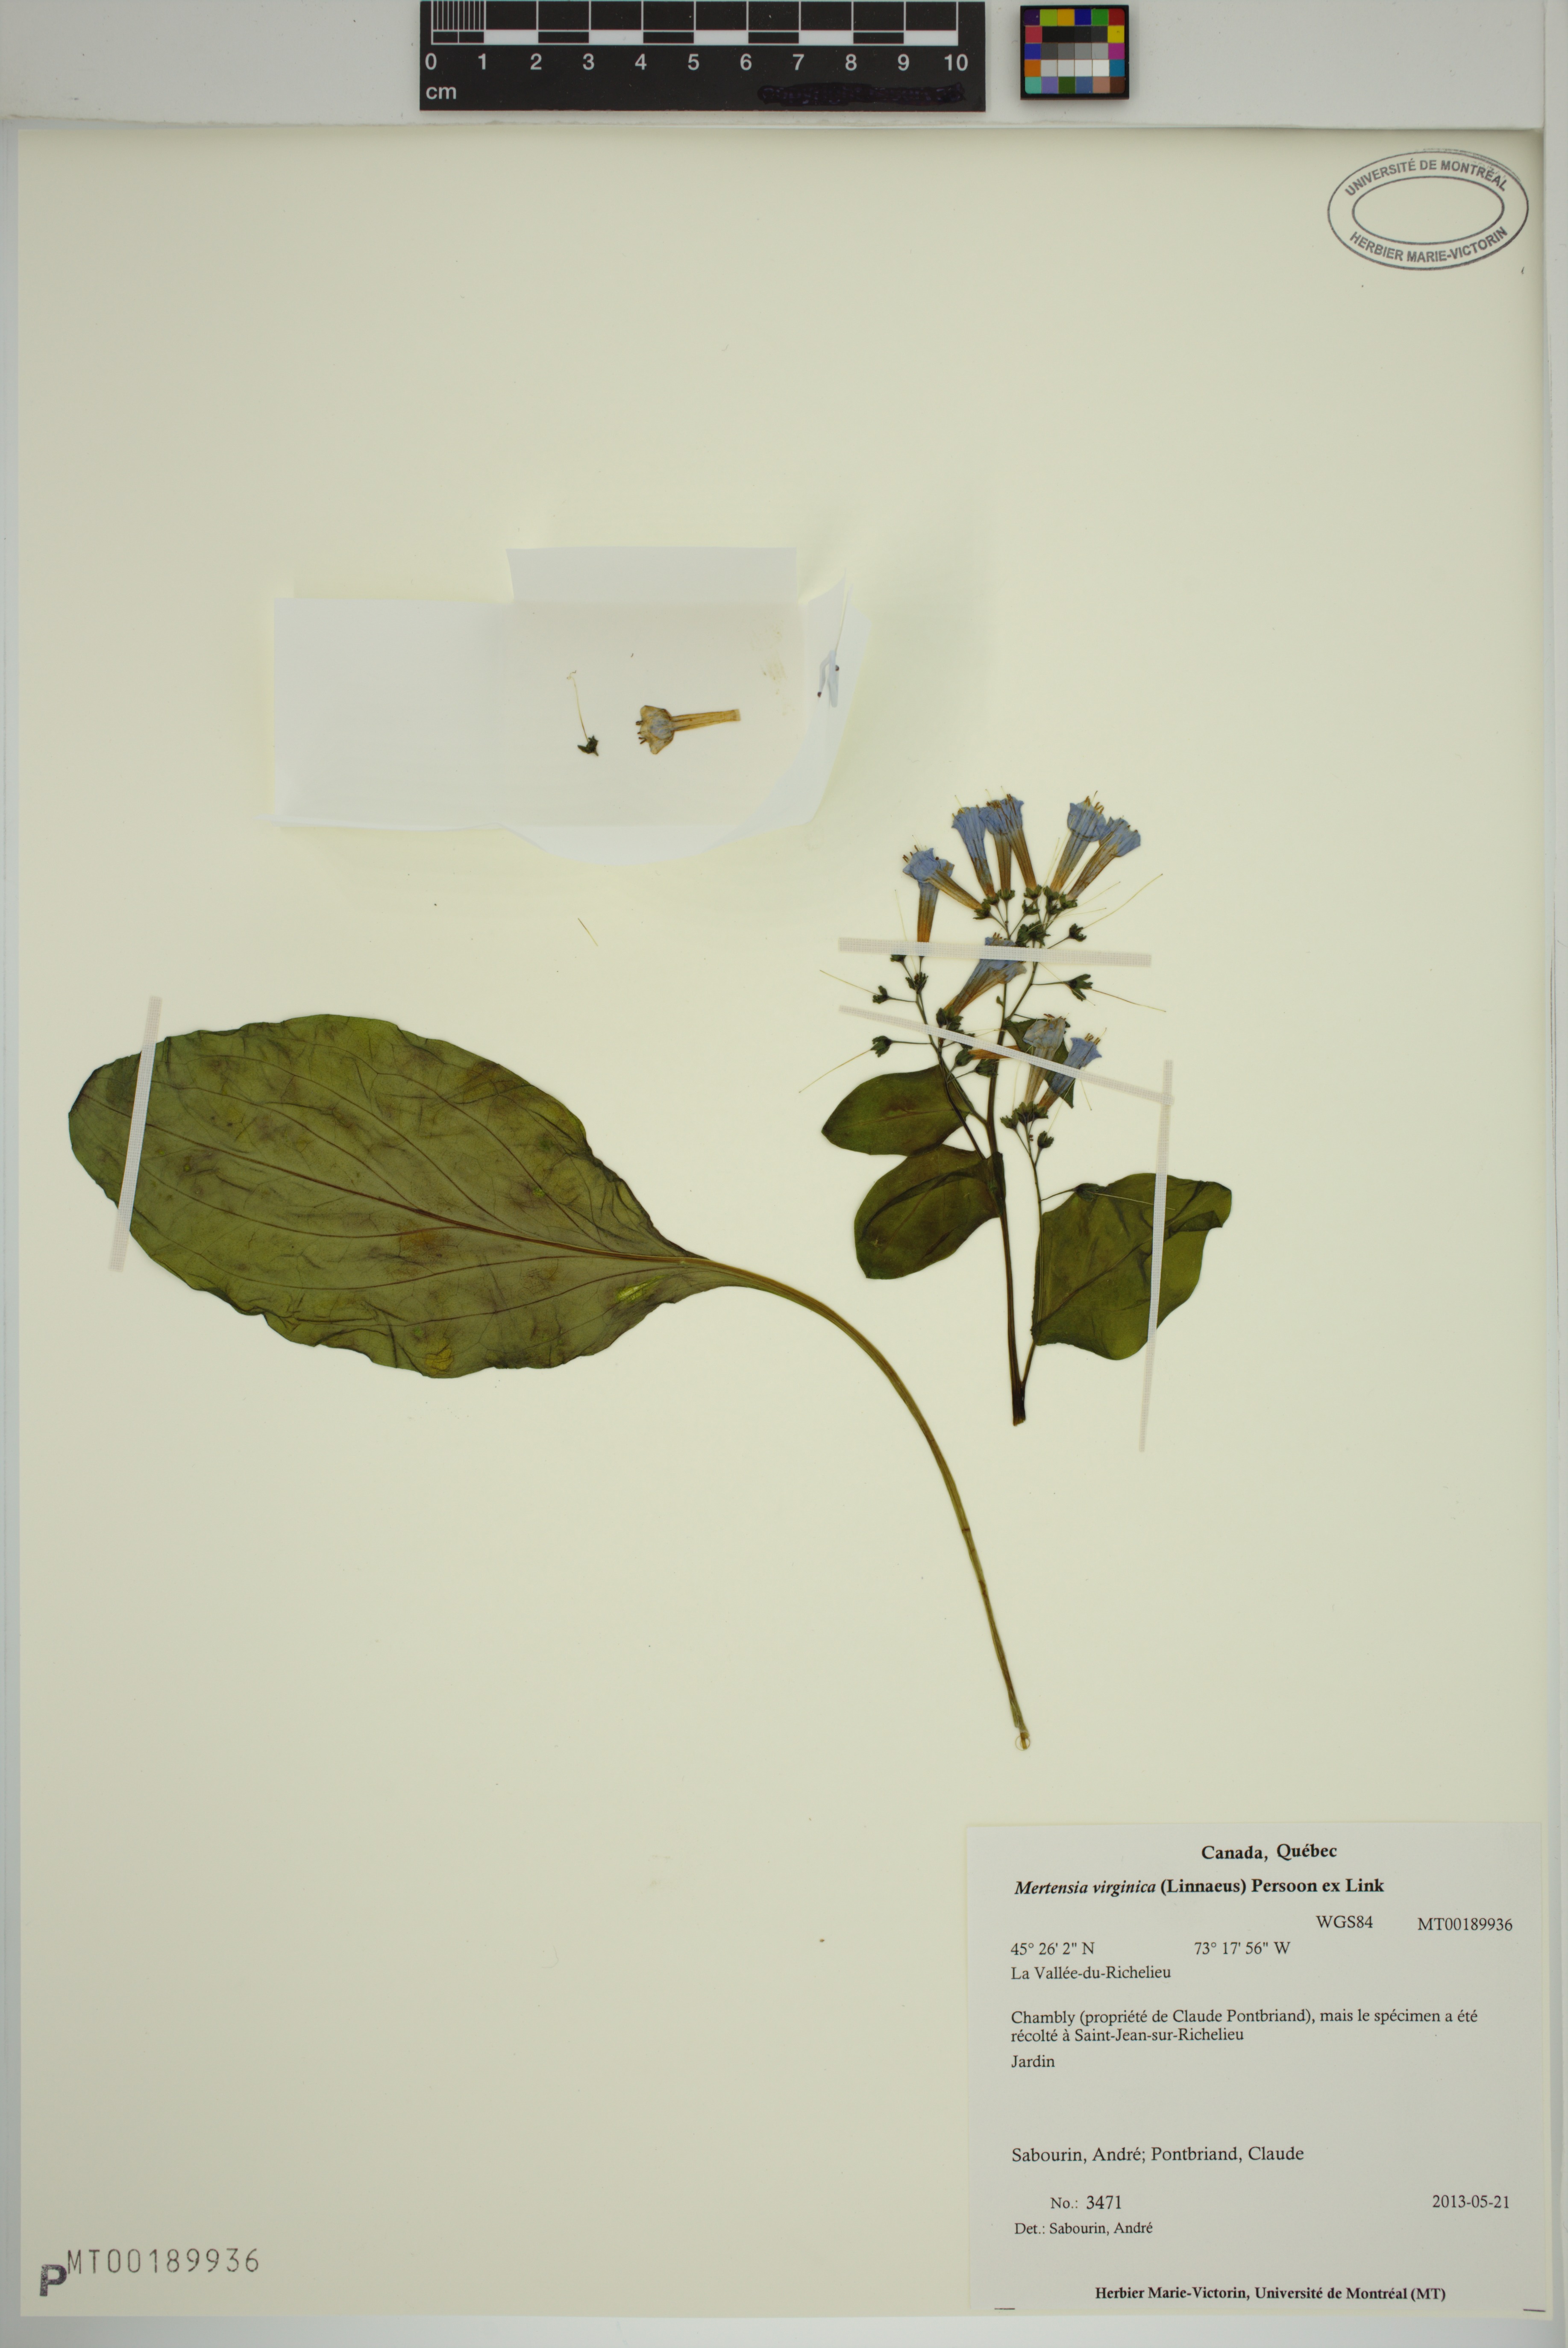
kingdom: Plantae
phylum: Tracheophyta
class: Magnoliopsida
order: Boraginales
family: Boraginaceae
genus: Mertensia
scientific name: Mertensia virginica
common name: Virginia bluebells
